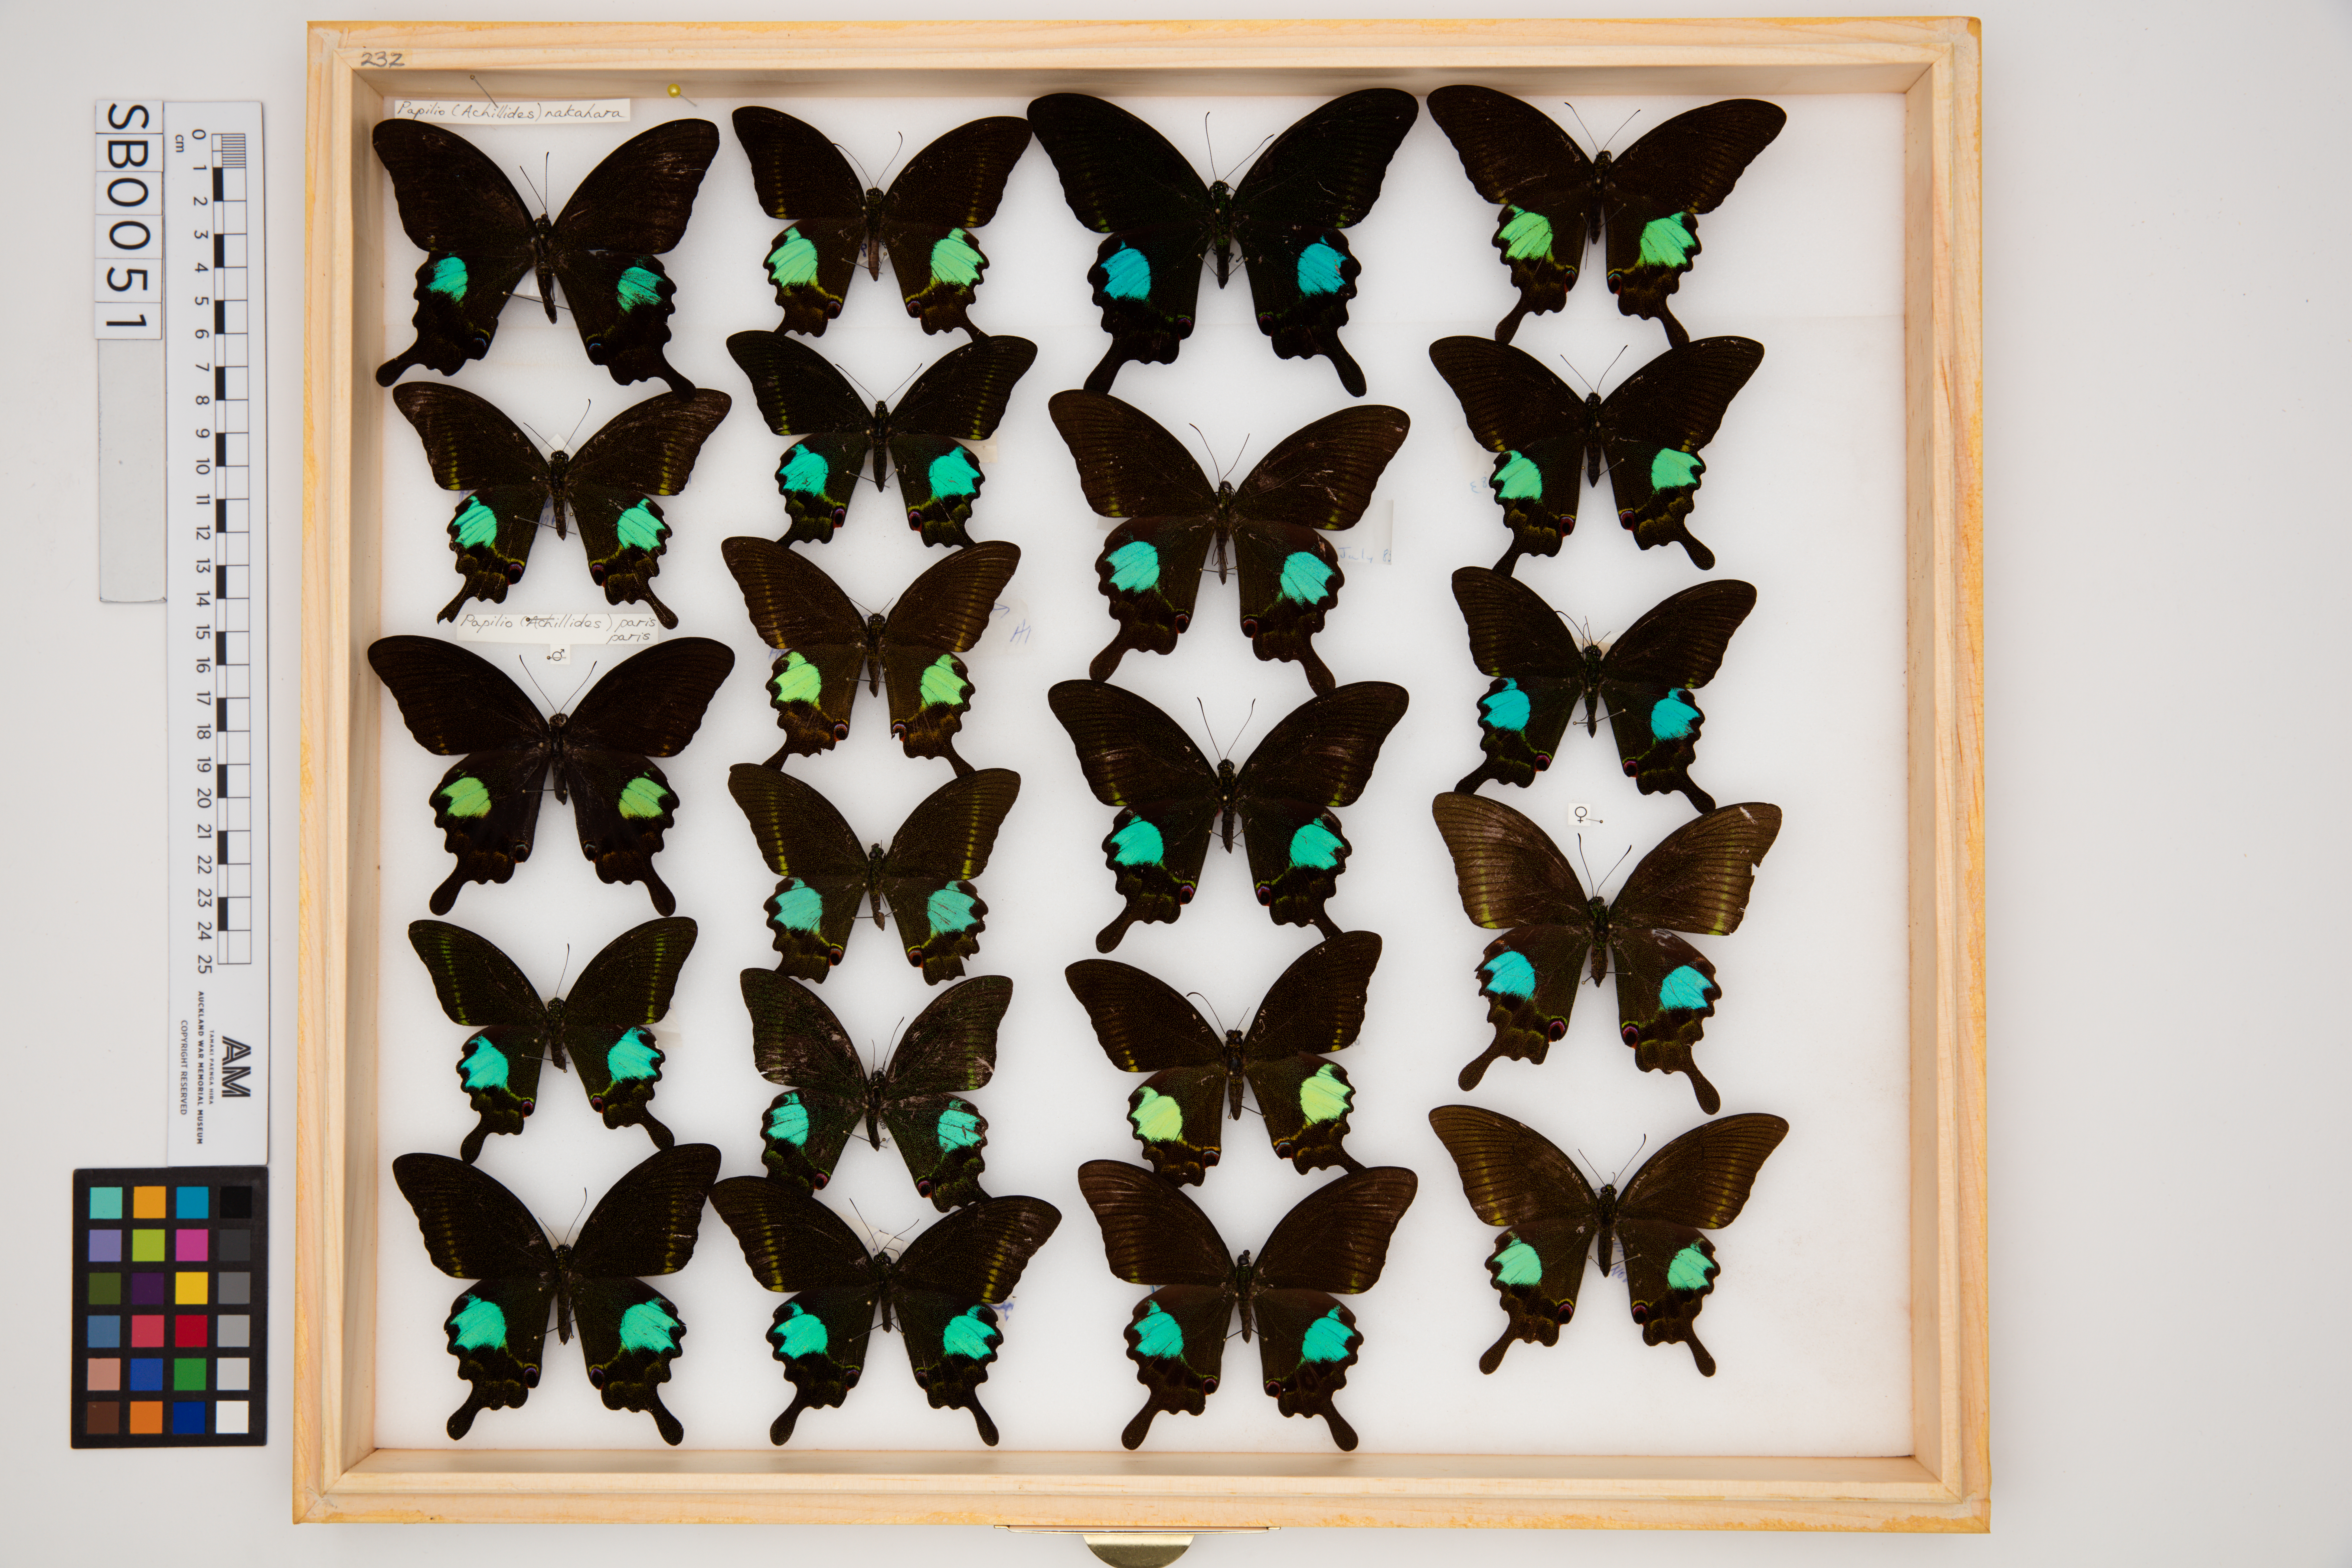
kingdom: Animalia
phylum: Arthropoda
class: Insecta
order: Lepidoptera
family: Papilionidae
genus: Papilio
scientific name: Papilio paris
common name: Paris peacock
